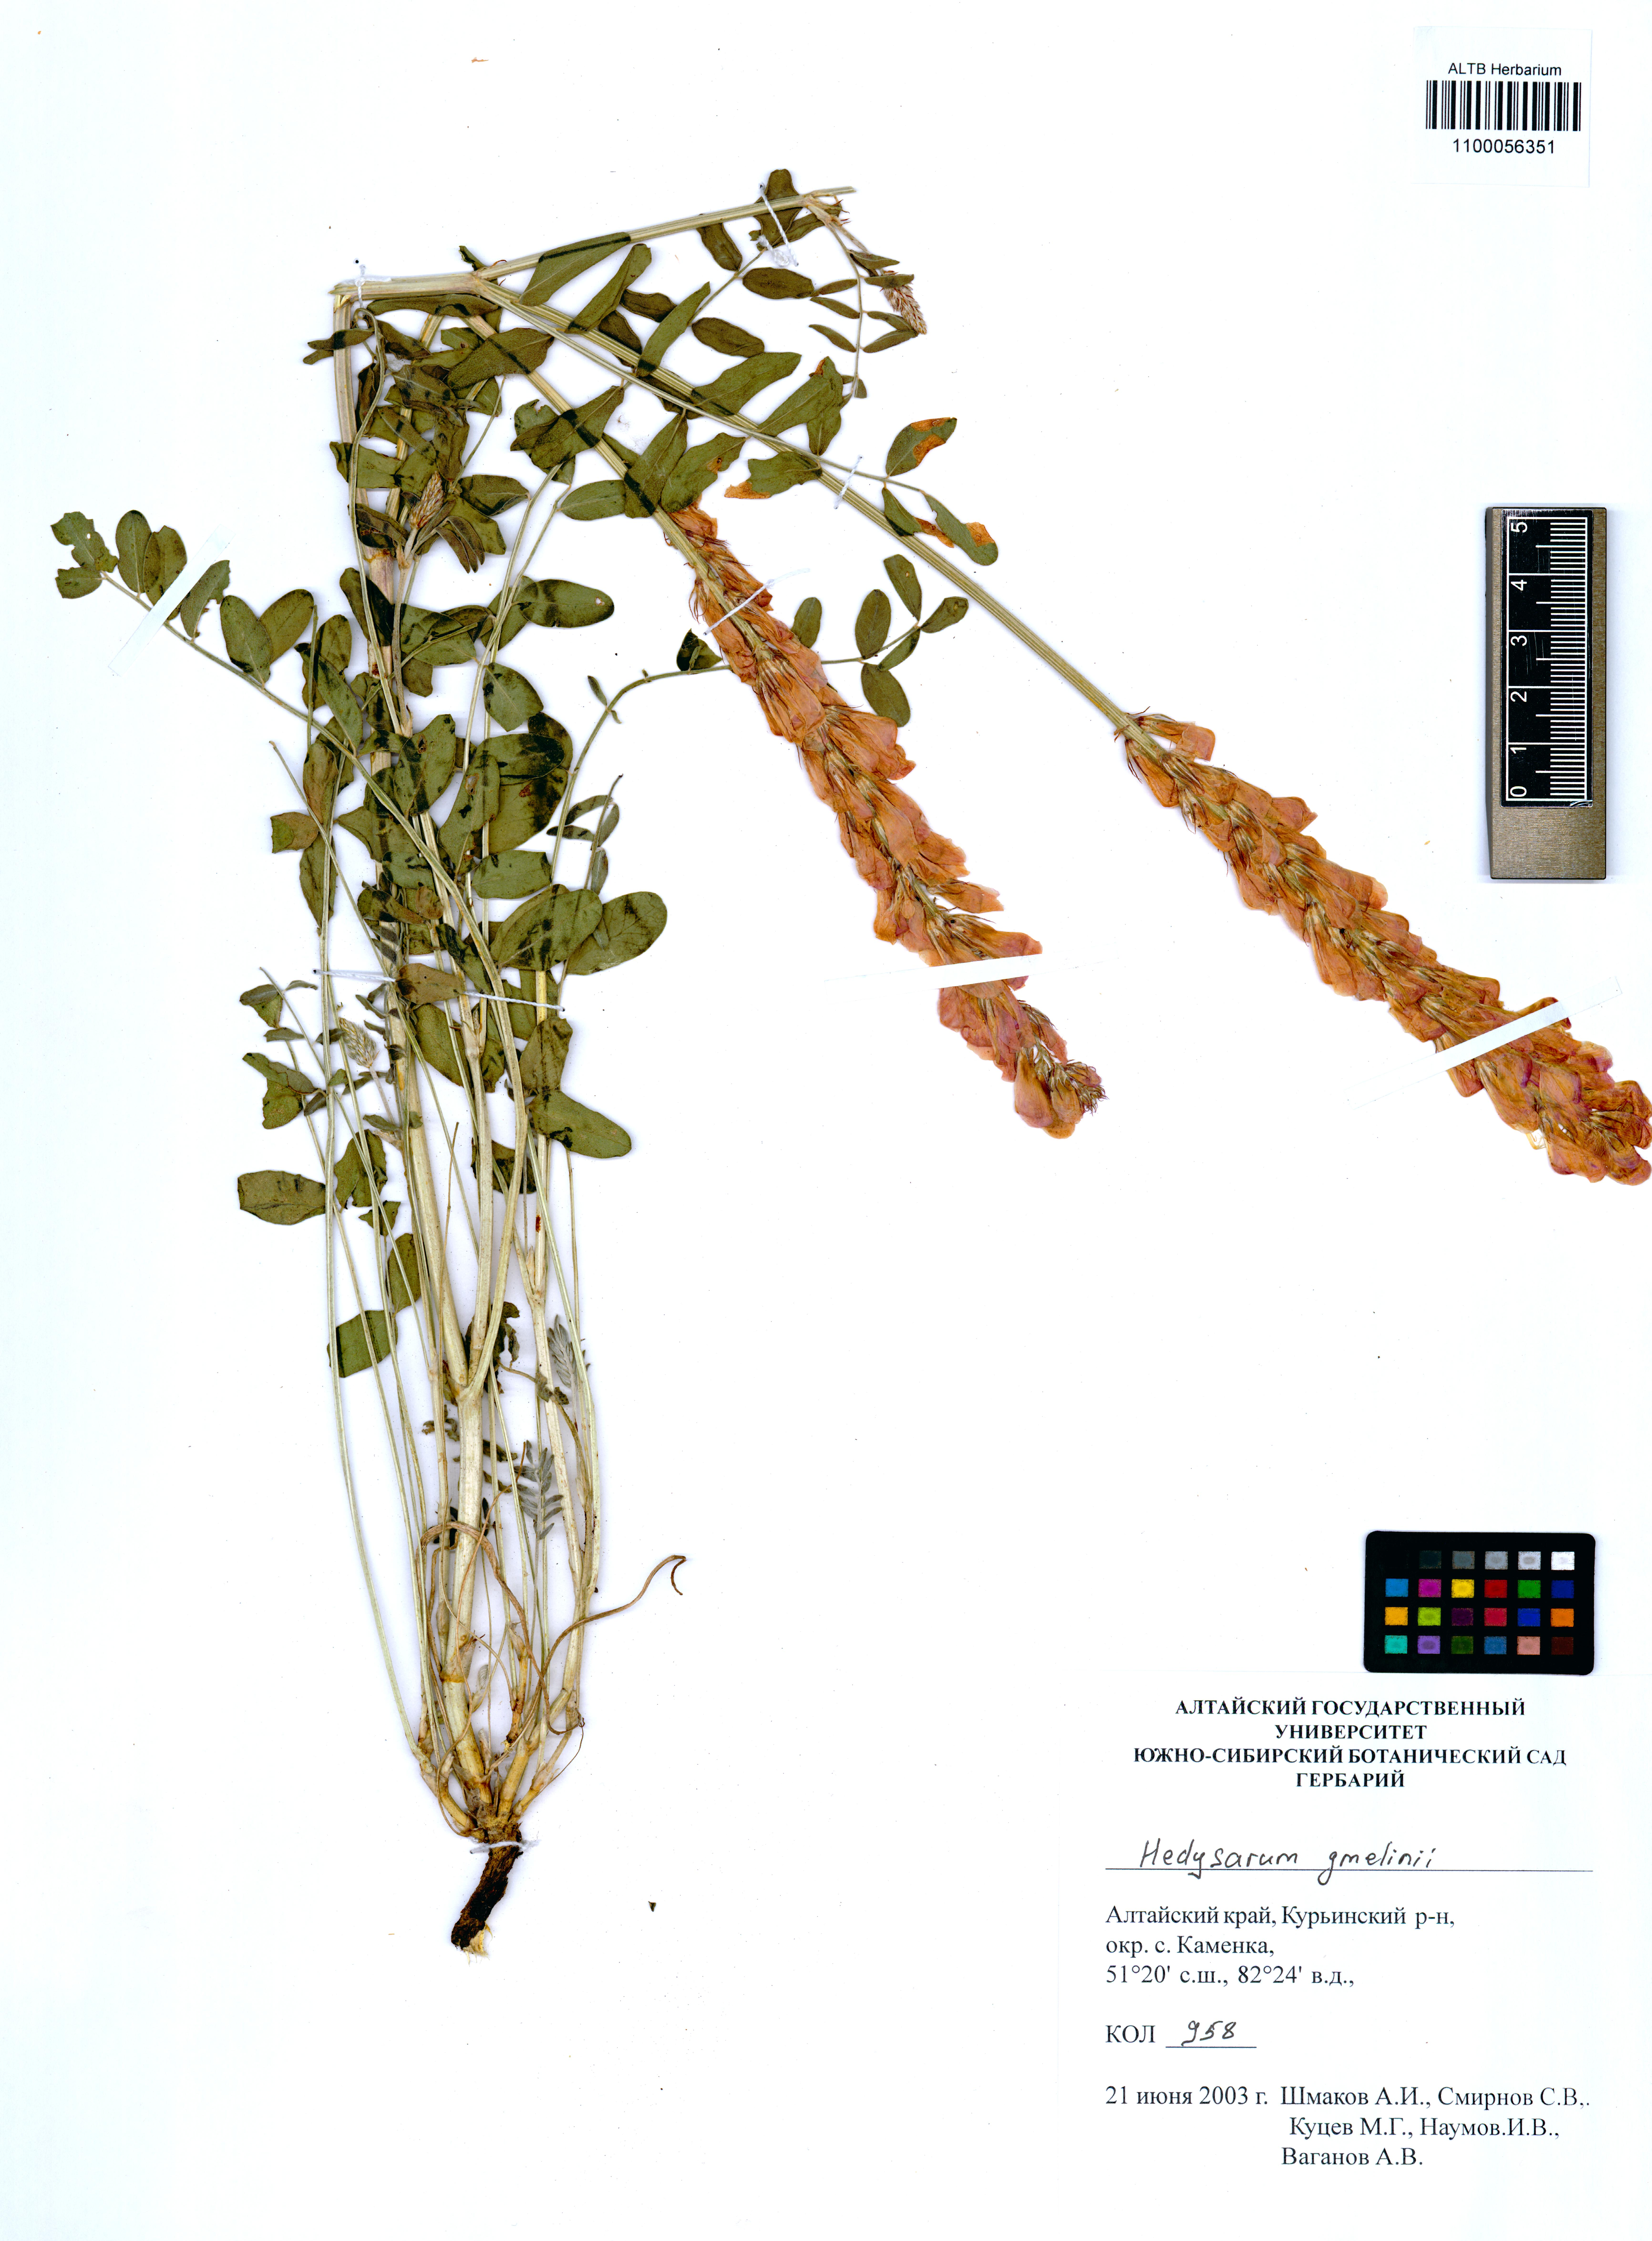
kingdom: Plantae
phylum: Tracheophyta
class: Magnoliopsida
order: Fabales
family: Fabaceae
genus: Hedysarum
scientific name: Hedysarum gmelinii
